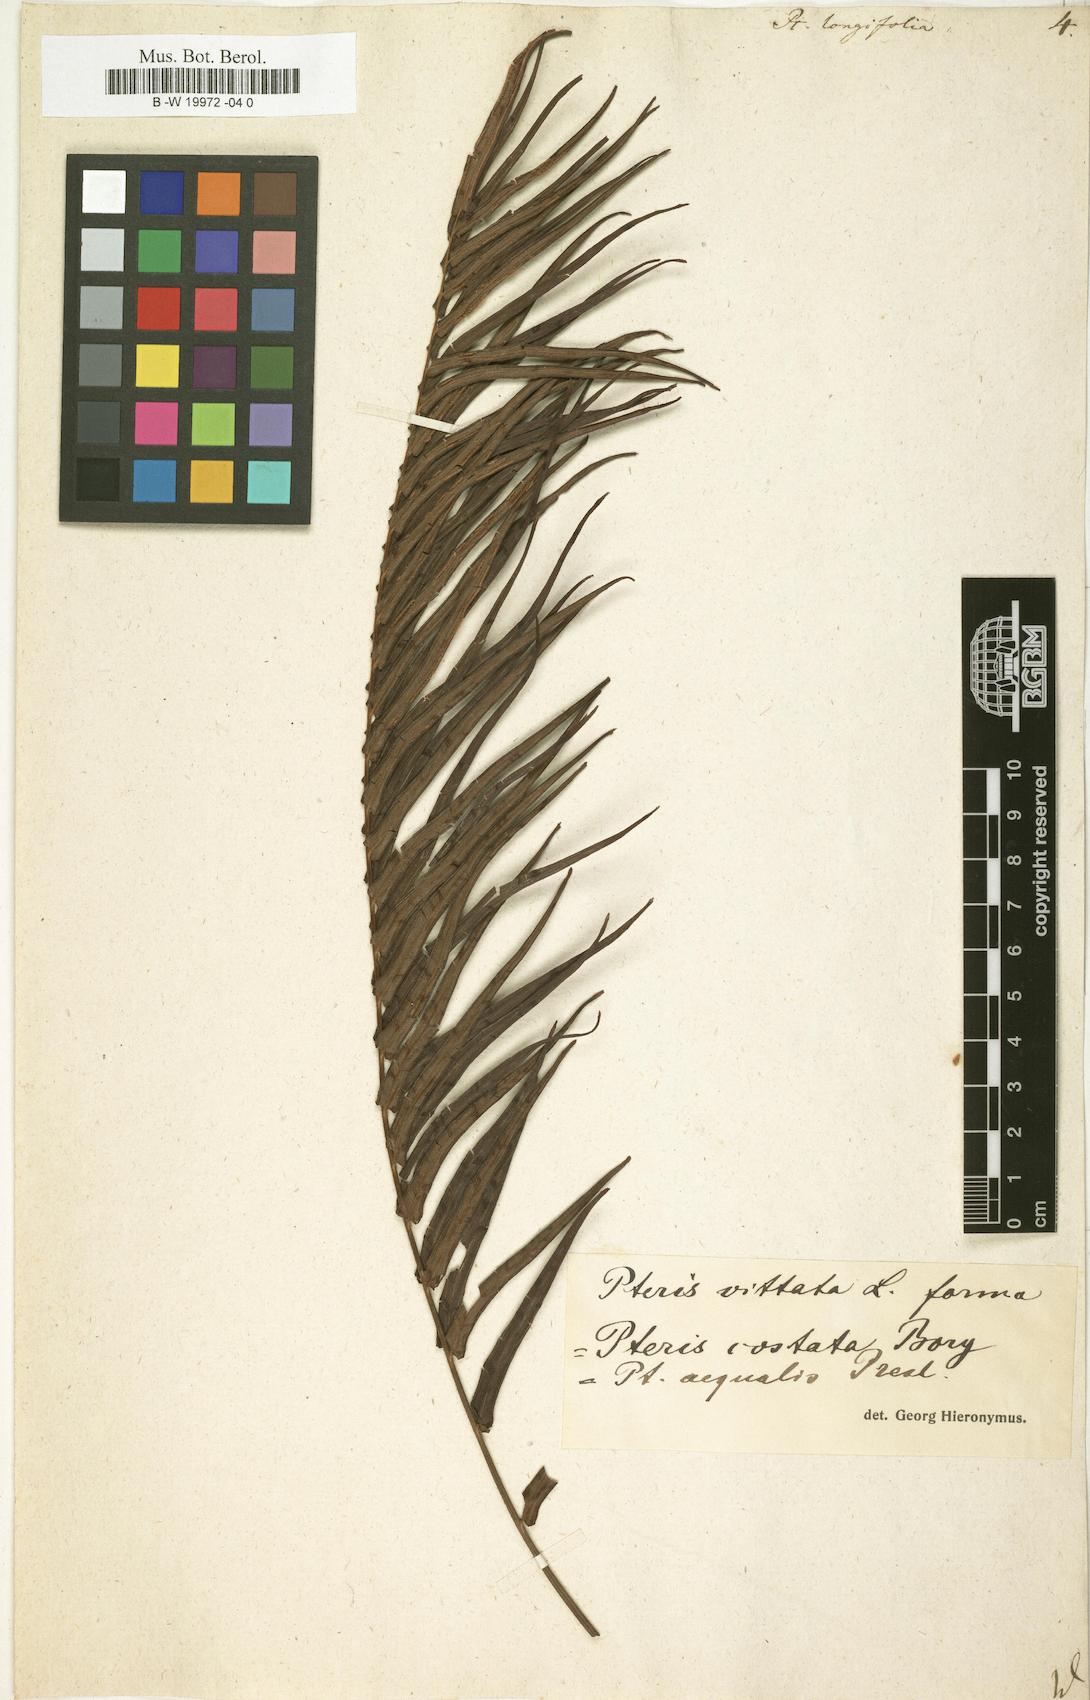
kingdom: Plantae
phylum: Tracheophyta
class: Polypodiopsida
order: Polypodiales
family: Pteridaceae
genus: Pteris
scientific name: Pteris longifolia
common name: Longleaf brake
